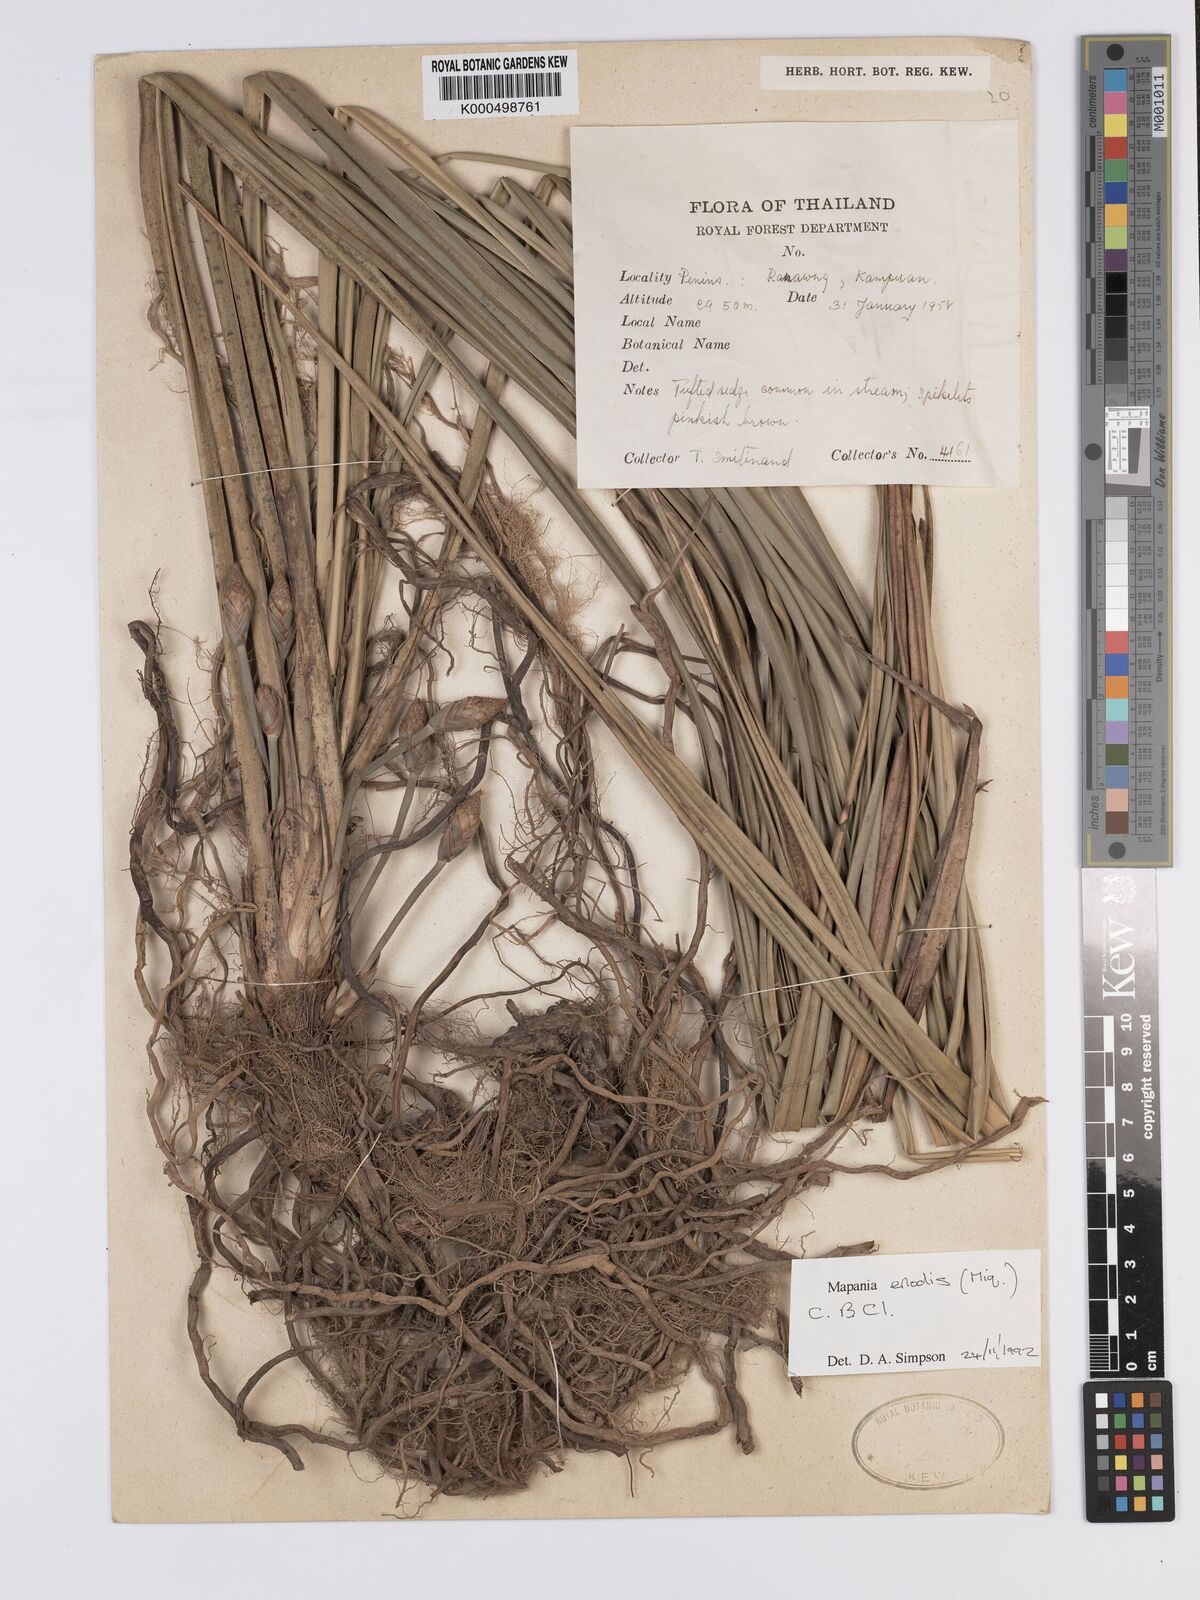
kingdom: Plantae
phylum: Tracheophyta
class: Liliopsida
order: Poales
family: Cyperaceae
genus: Mapania
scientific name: Mapania enodis
